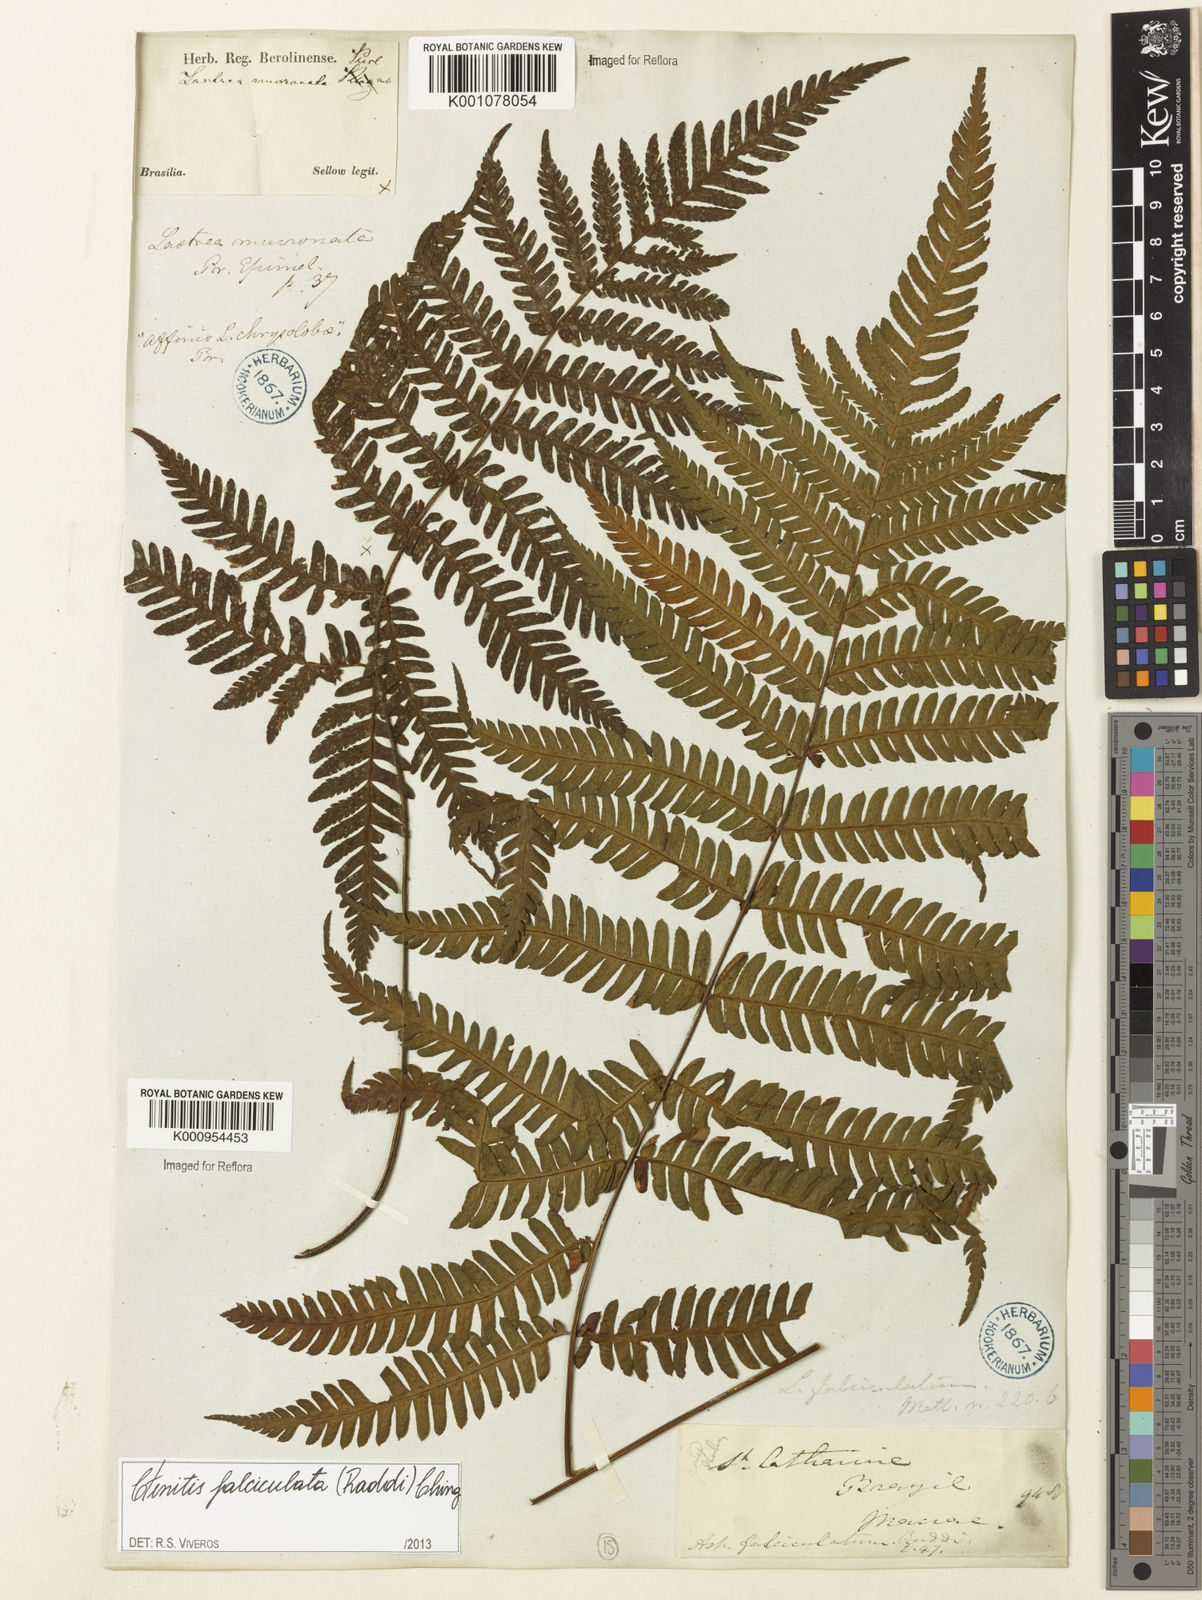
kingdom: Plantae
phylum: Tracheophyta
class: Polypodiopsida
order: Polypodiales
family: Dryopteridaceae
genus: Ctenitis
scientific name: Ctenitis falciculata
